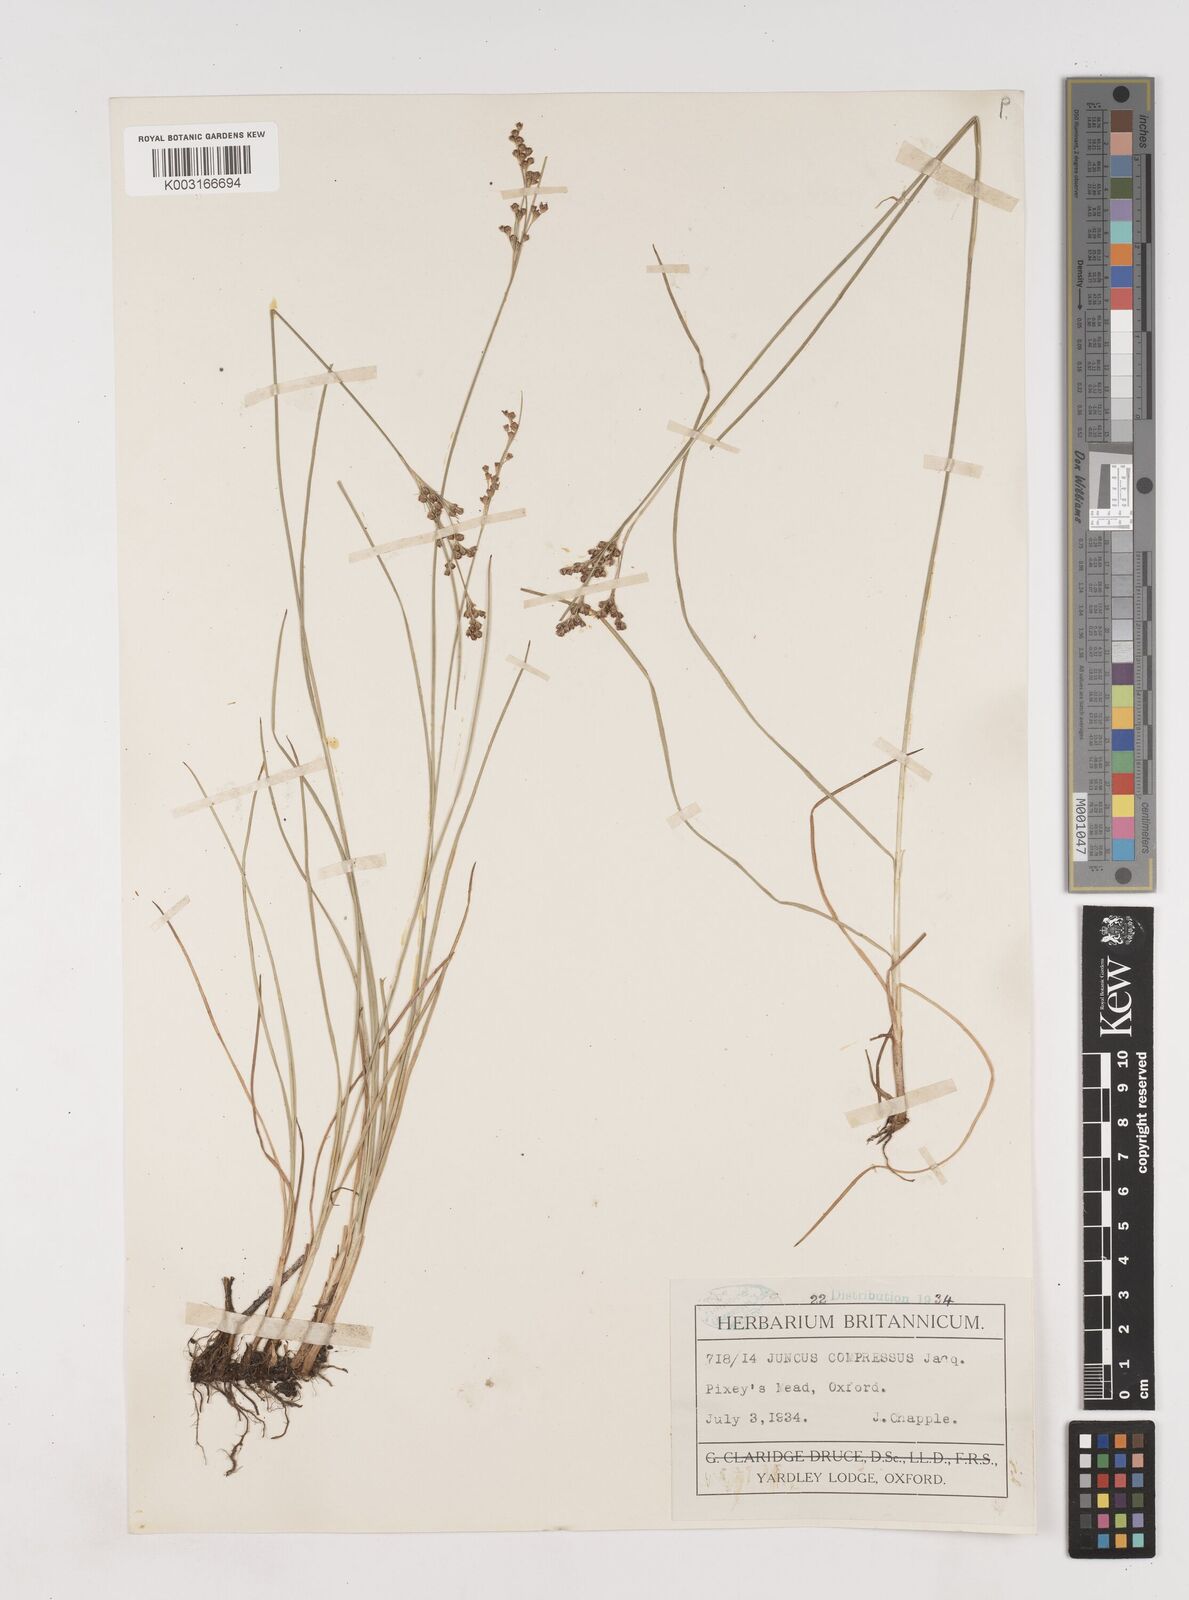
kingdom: Plantae
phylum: Tracheophyta
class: Liliopsida
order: Poales
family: Juncaceae
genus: Juncus
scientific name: Juncus compressus
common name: Round-fruited rush
